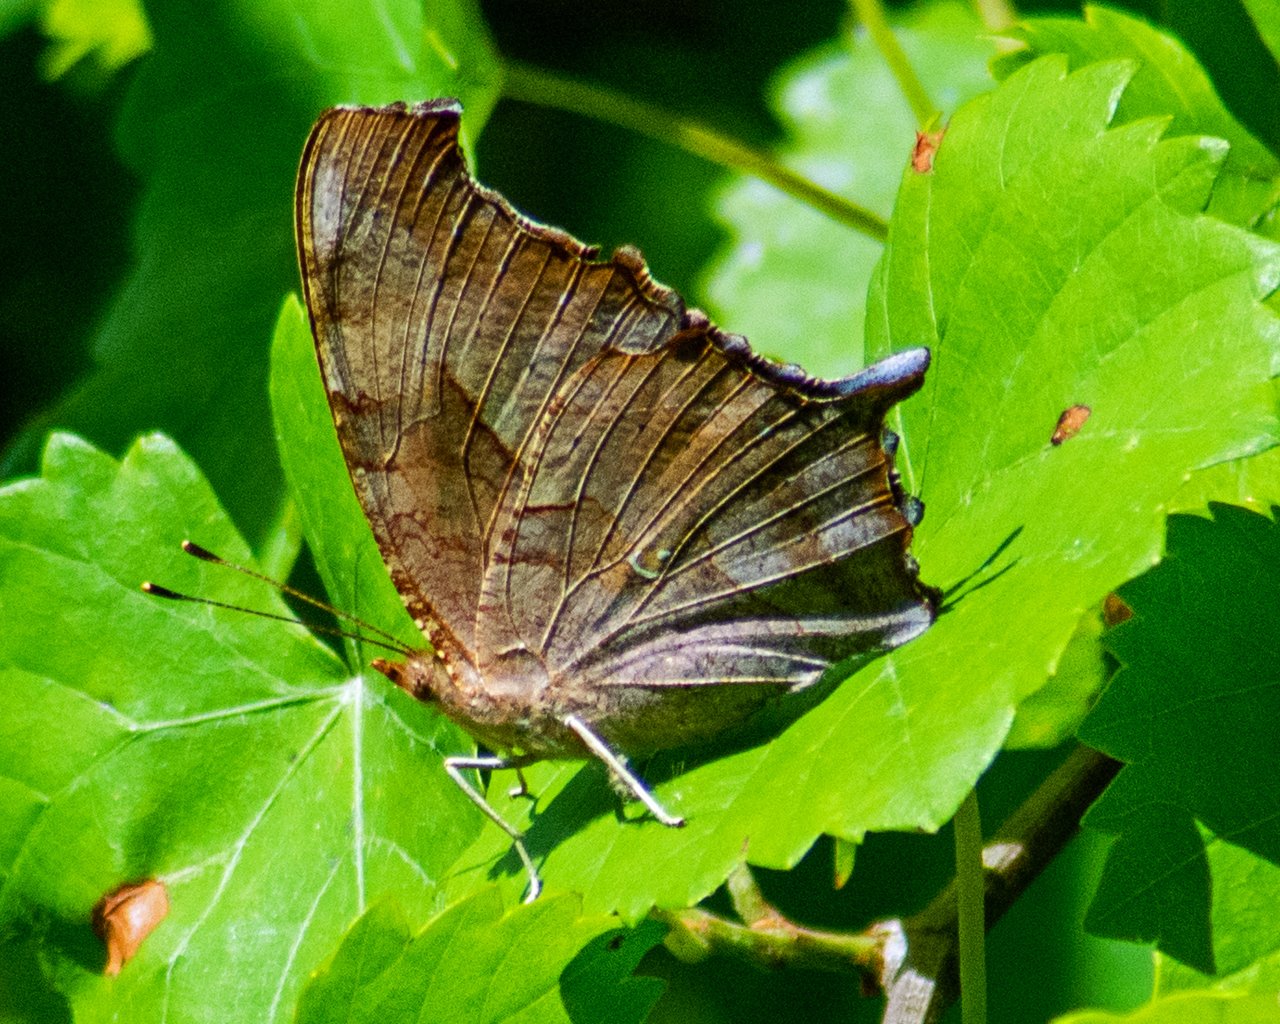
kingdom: Animalia
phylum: Arthropoda
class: Insecta
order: Lepidoptera
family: Nymphalidae
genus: Polygonia
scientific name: Polygonia interrogationis
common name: Question Mark
